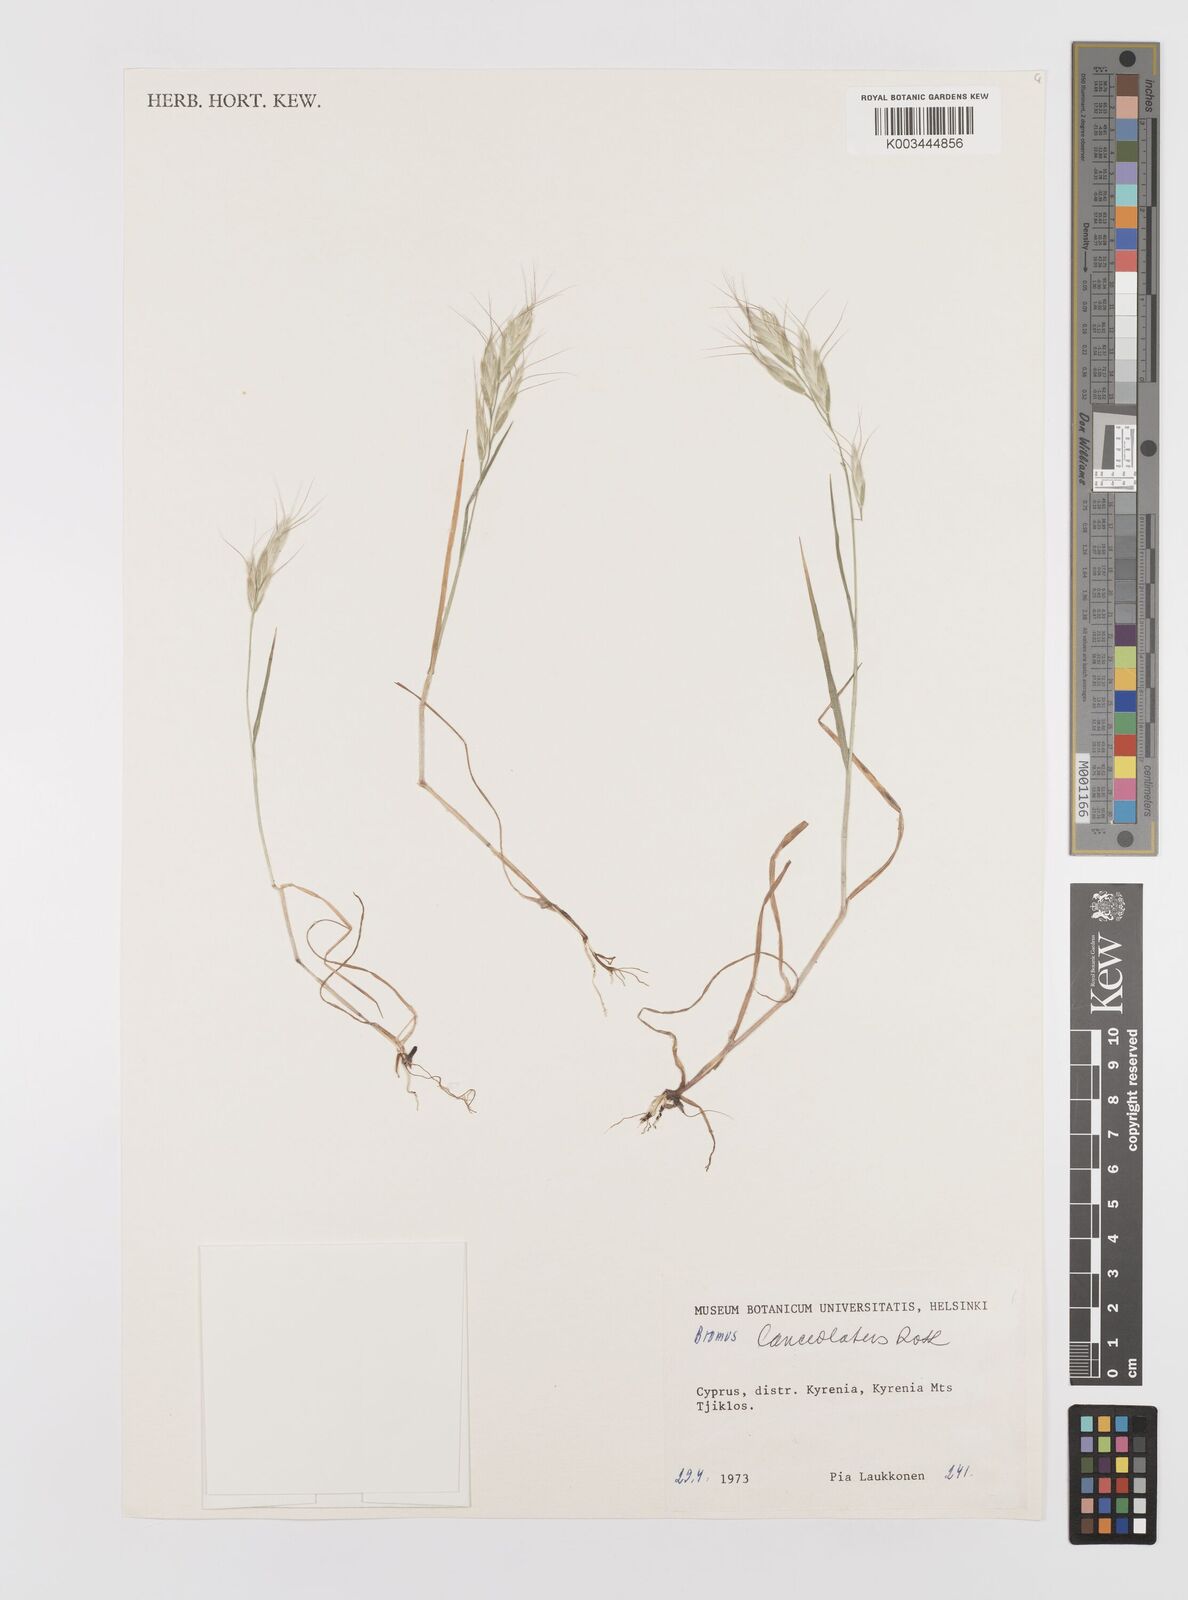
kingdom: Plantae
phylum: Tracheophyta
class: Liliopsida
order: Poales
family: Poaceae
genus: Bromus
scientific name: Bromus lanceolatus
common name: Mediterranean brome
